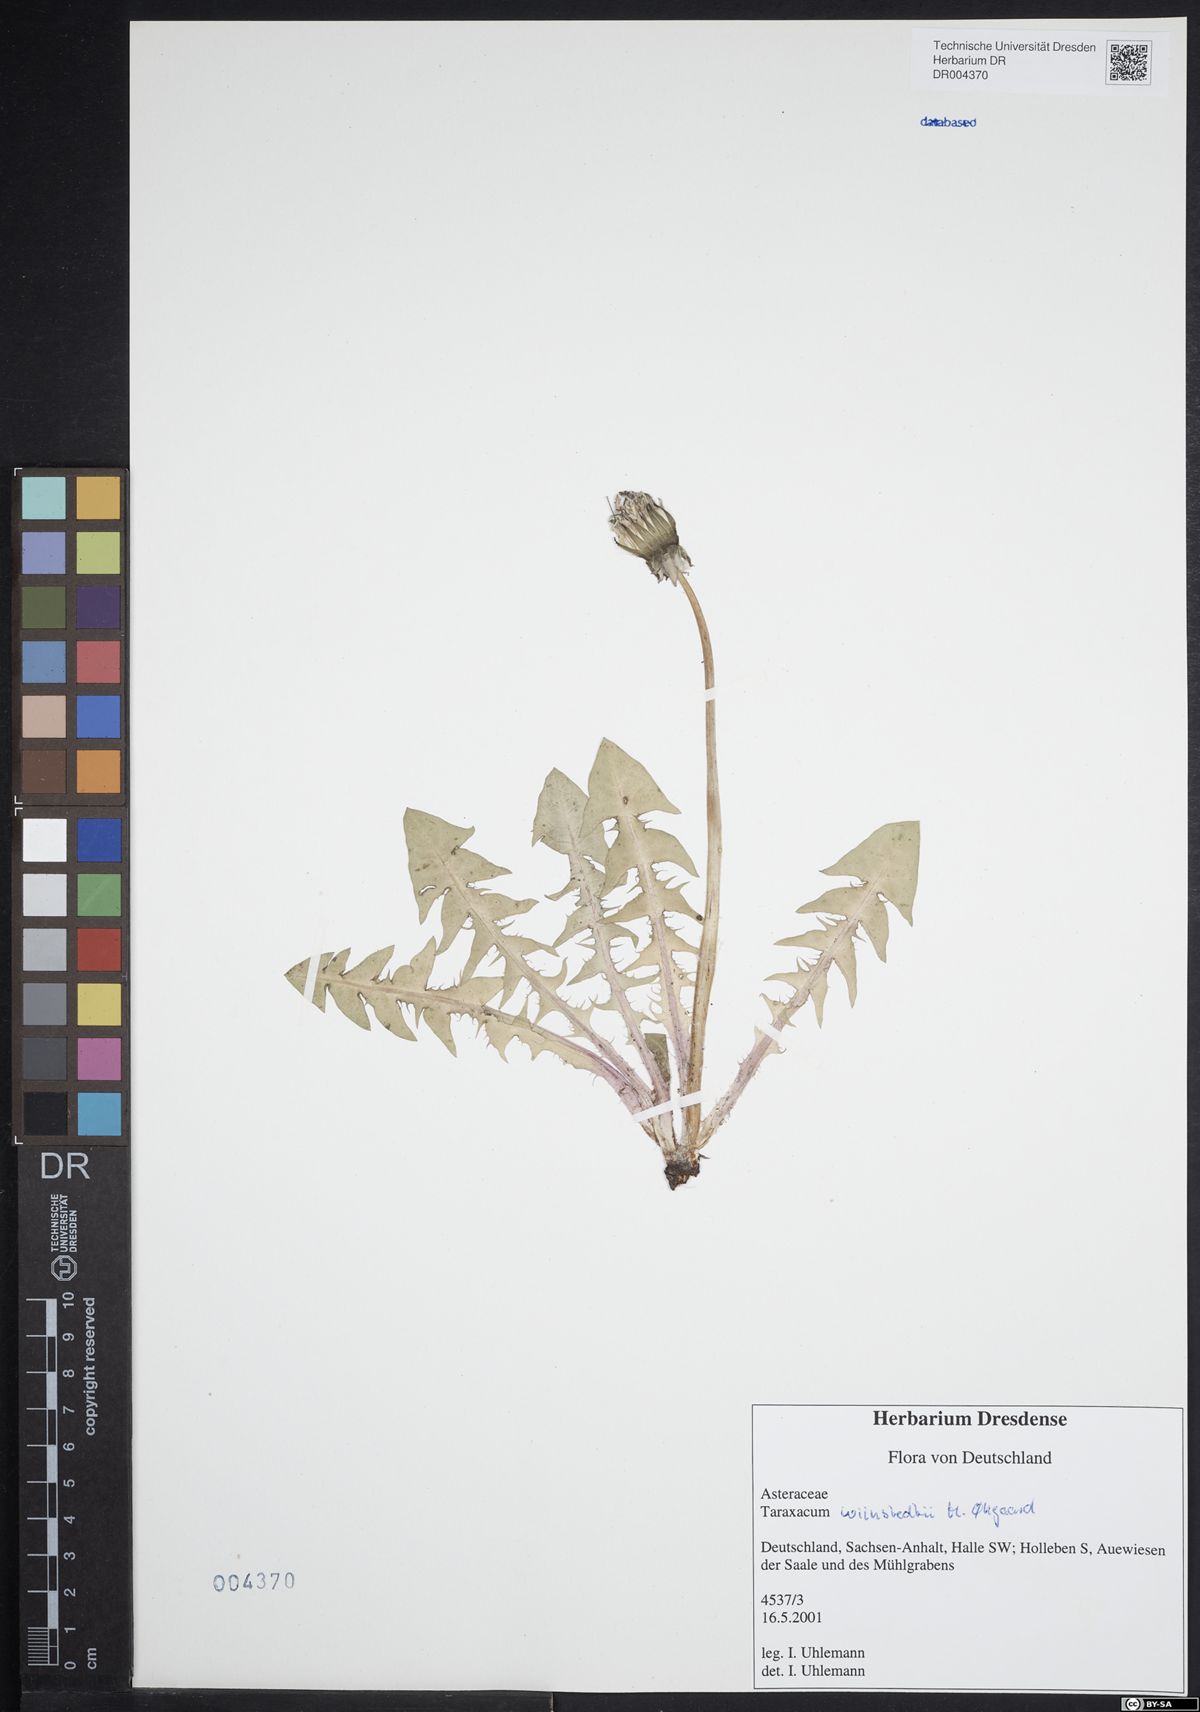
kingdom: Plantae
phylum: Tracheophyta
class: Magnoliopsida
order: Asterales
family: Asteraceae
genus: Taraxacum
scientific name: Taraxacum wiinstedtii
